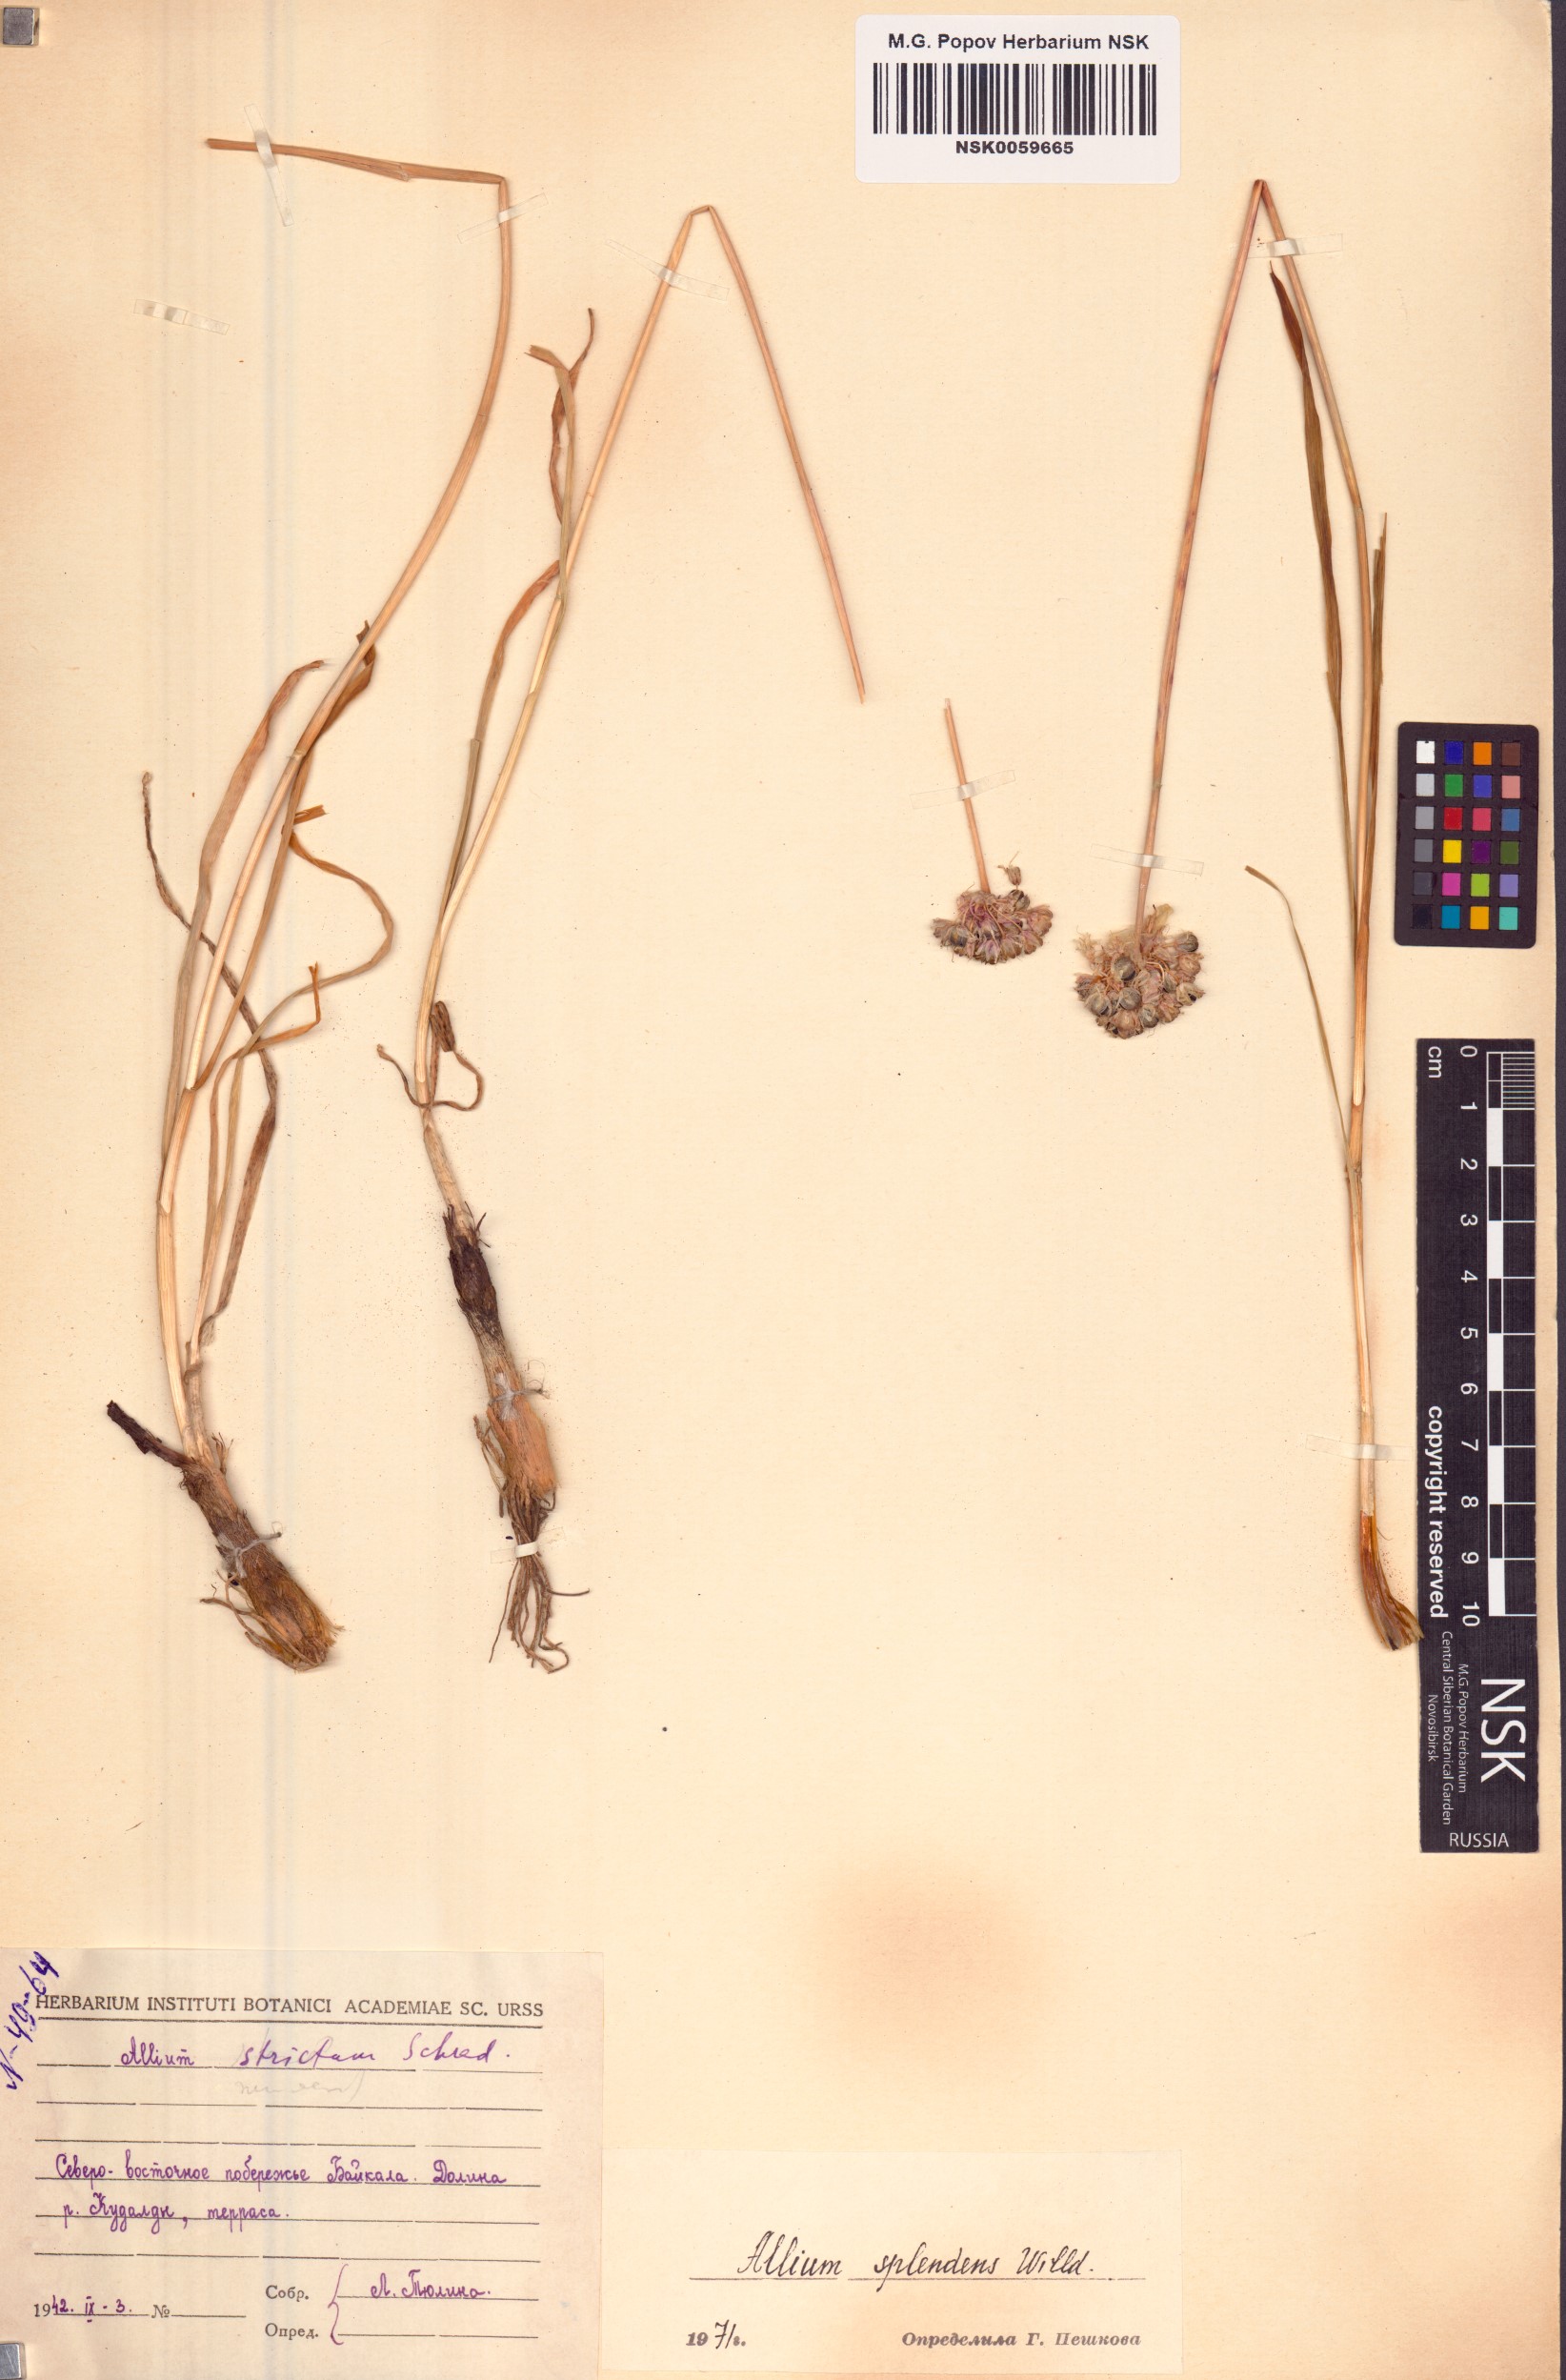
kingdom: Plantae
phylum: Tracheophyta
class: Liliopsida
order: Asparagales
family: Amaryllidaceae
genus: Allium
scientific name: Allium splendens
